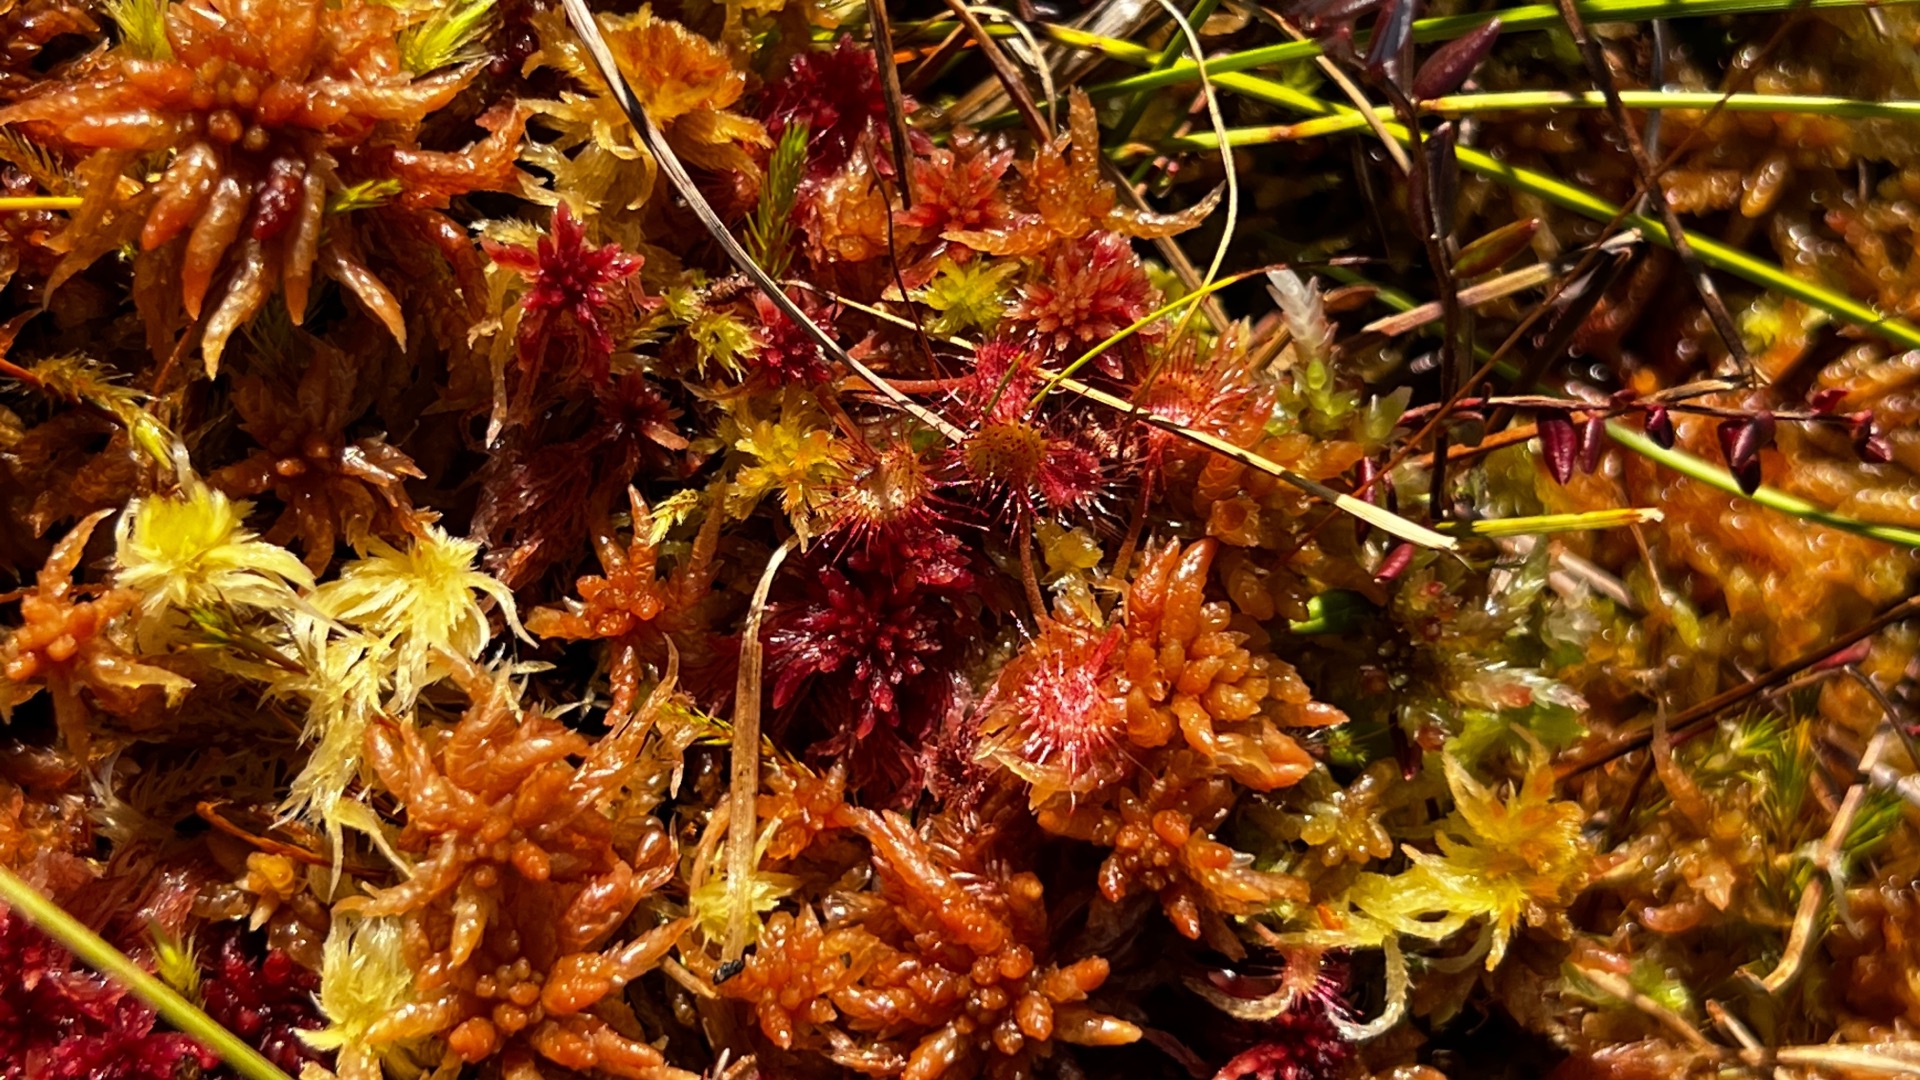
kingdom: Plantae
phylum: Tracheophyta
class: Magnoliopsida
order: Caryophyllales
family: Droseraceae
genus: Drosera
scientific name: Drosera rotundifolia
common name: Rundbladet soldug
